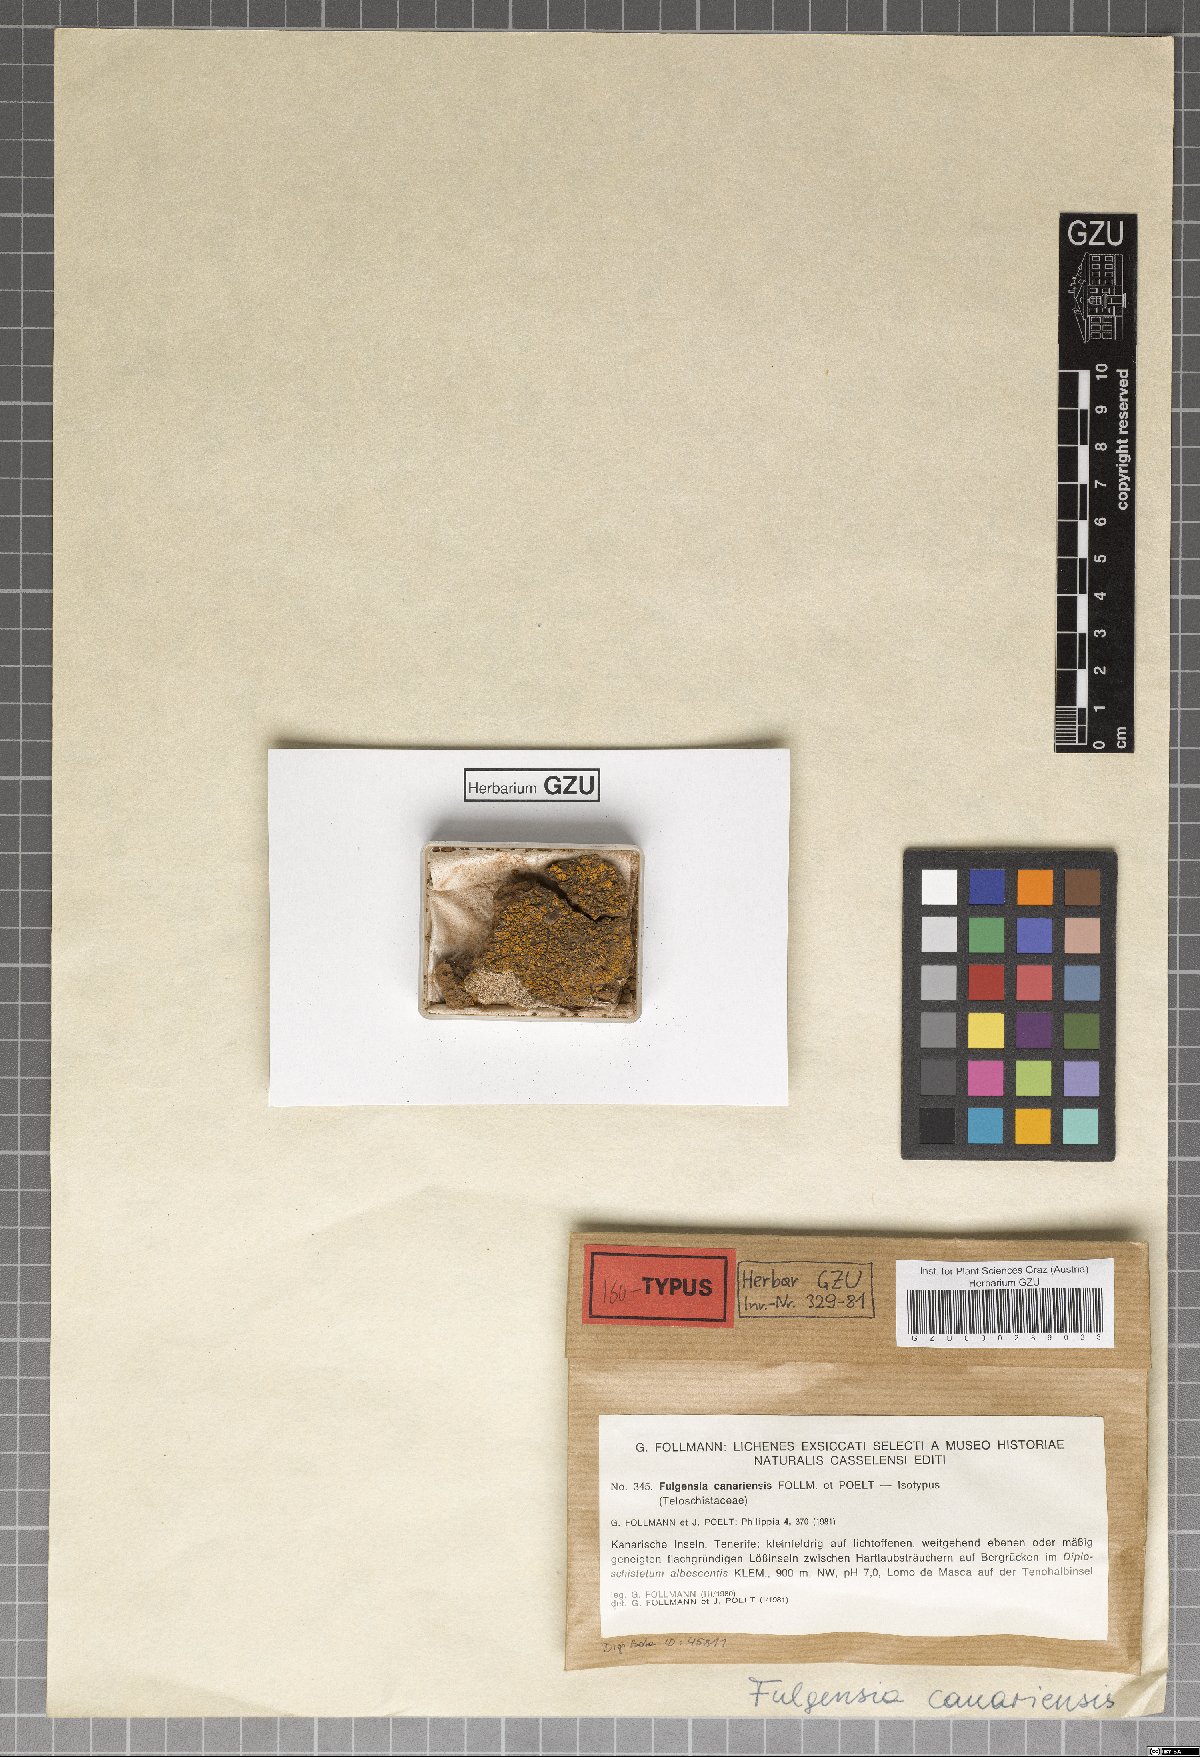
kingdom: Fungi
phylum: Ascomycota
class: Lecanoromycetes
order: Teloschistales
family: Teloschistaceae
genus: Gyalolechia
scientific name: Gyalolechia canariensis
